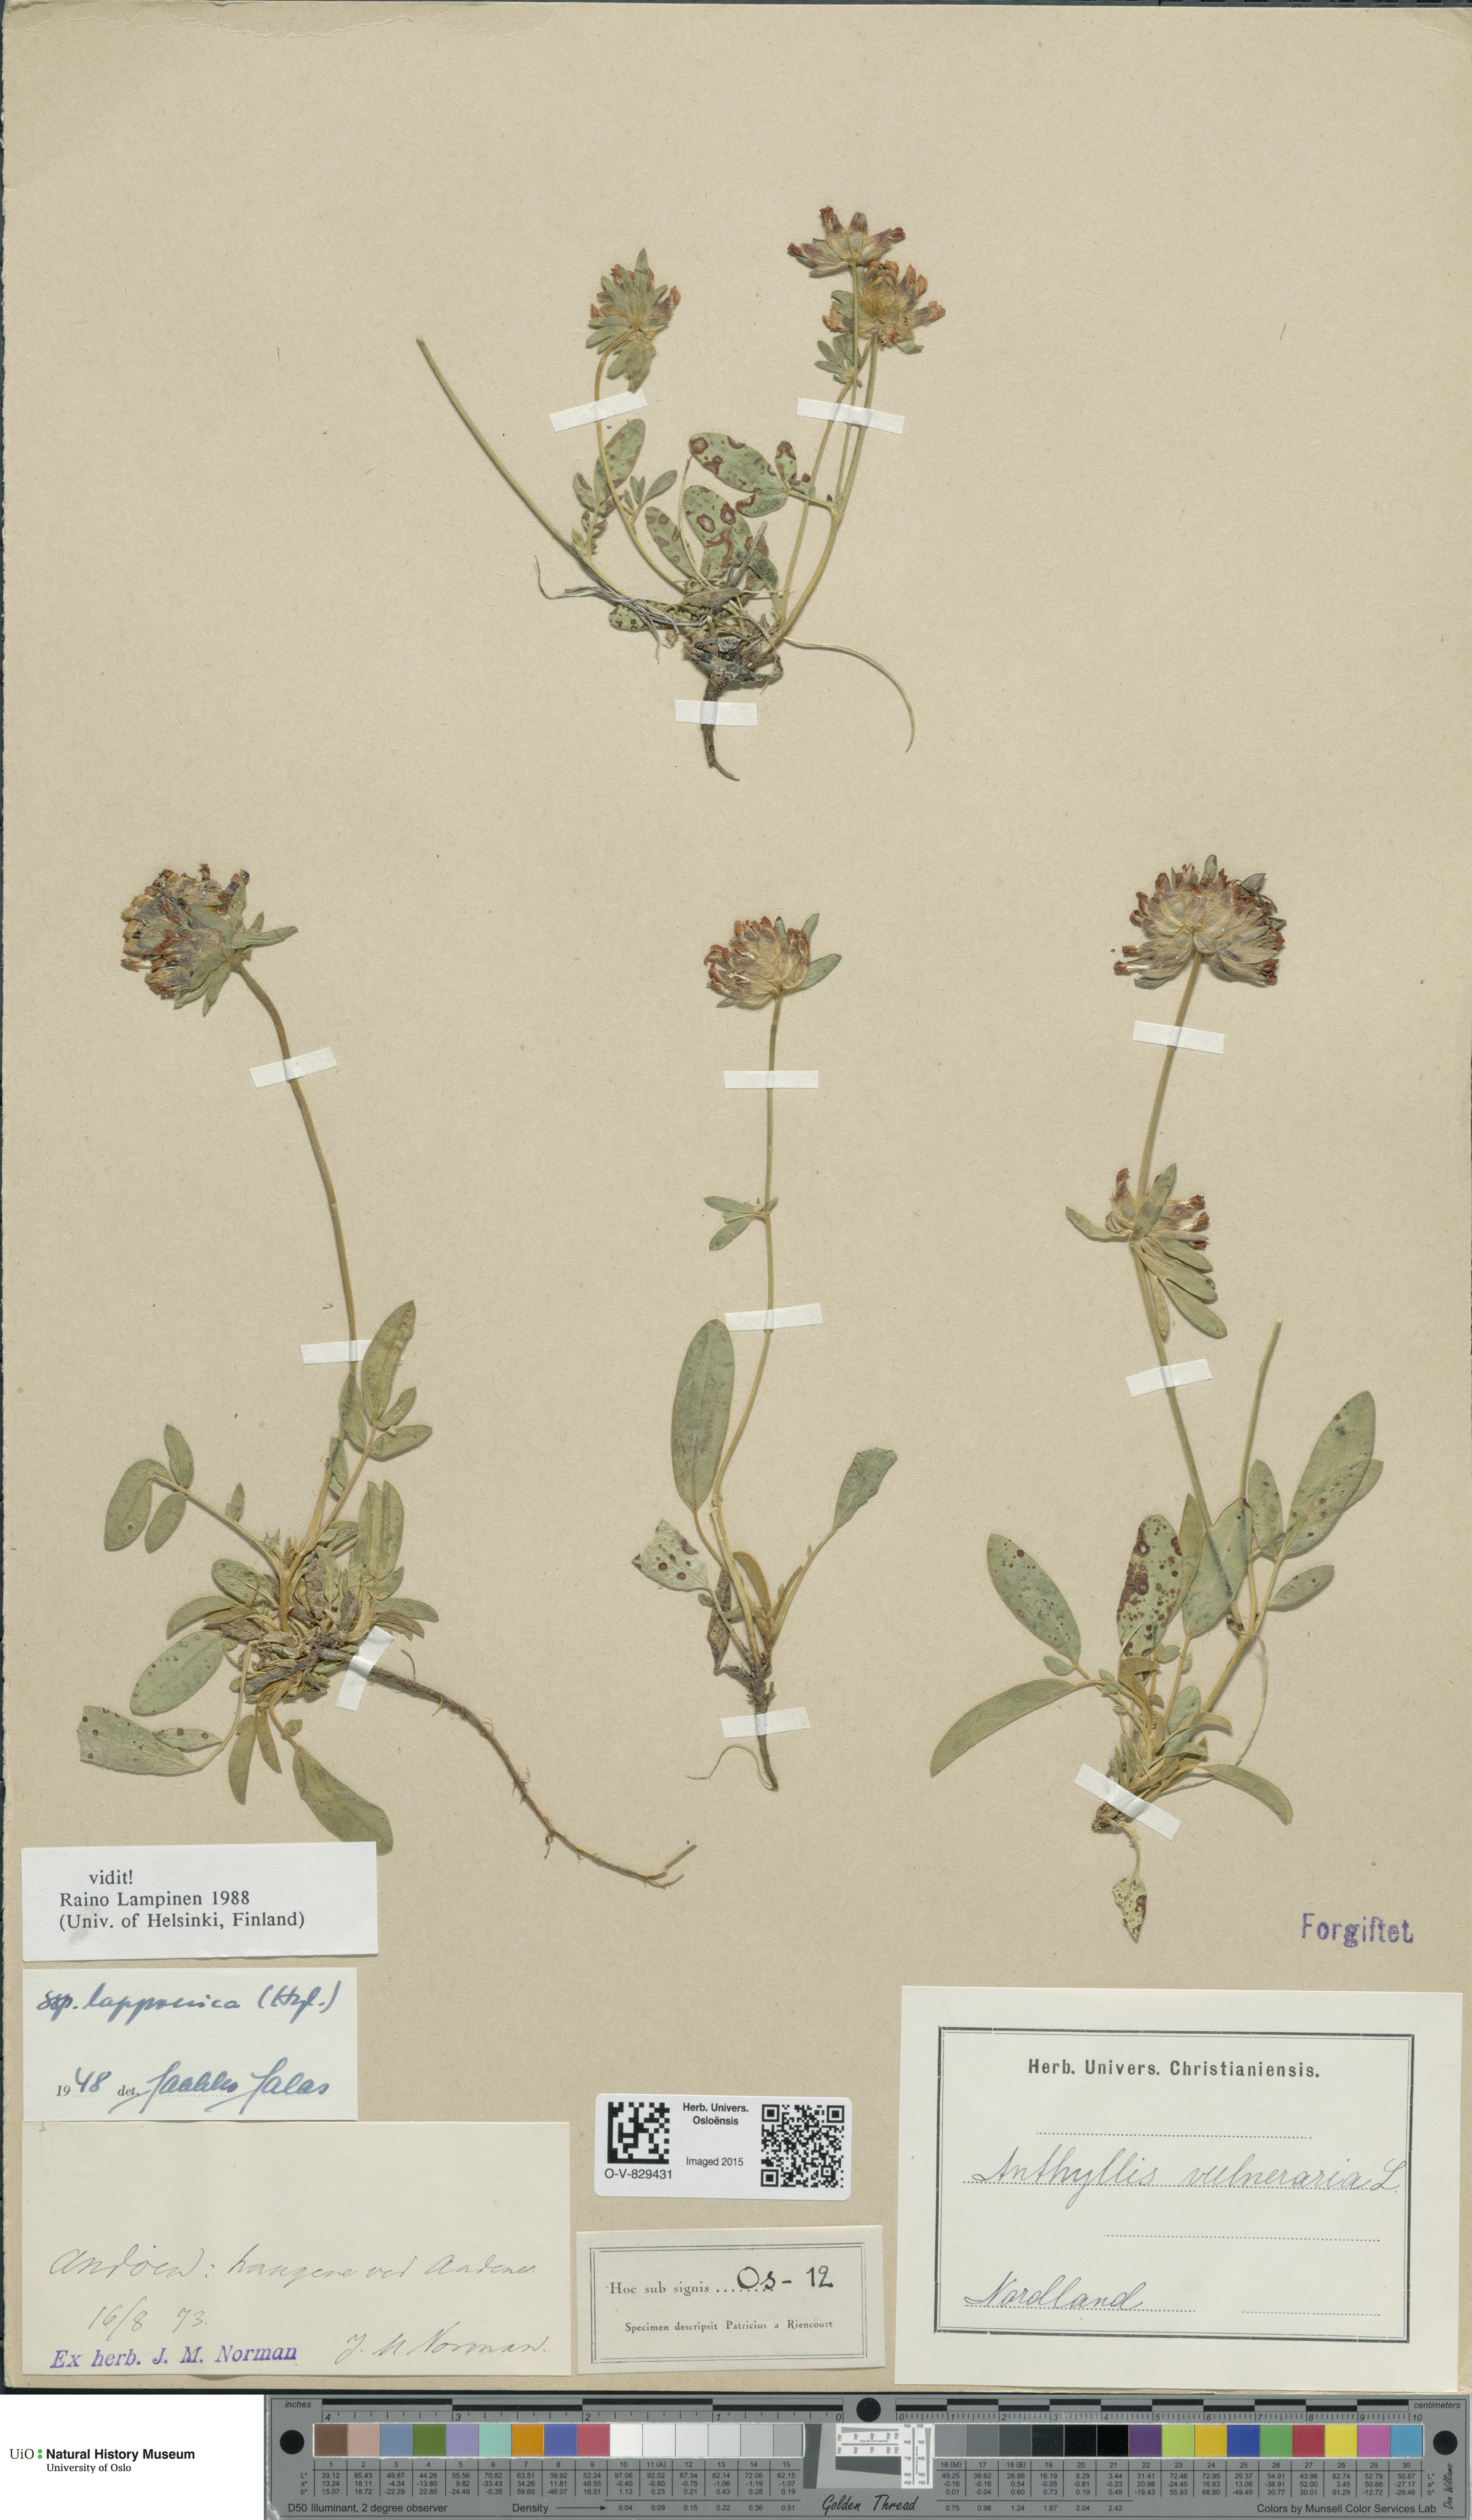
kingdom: Plantae
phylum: Tracheophyta
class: Magnoliopsida
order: Fabales
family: Fabaceae
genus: Anthyllis
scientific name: Anthyllis vulneraria
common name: Kidney vetch
